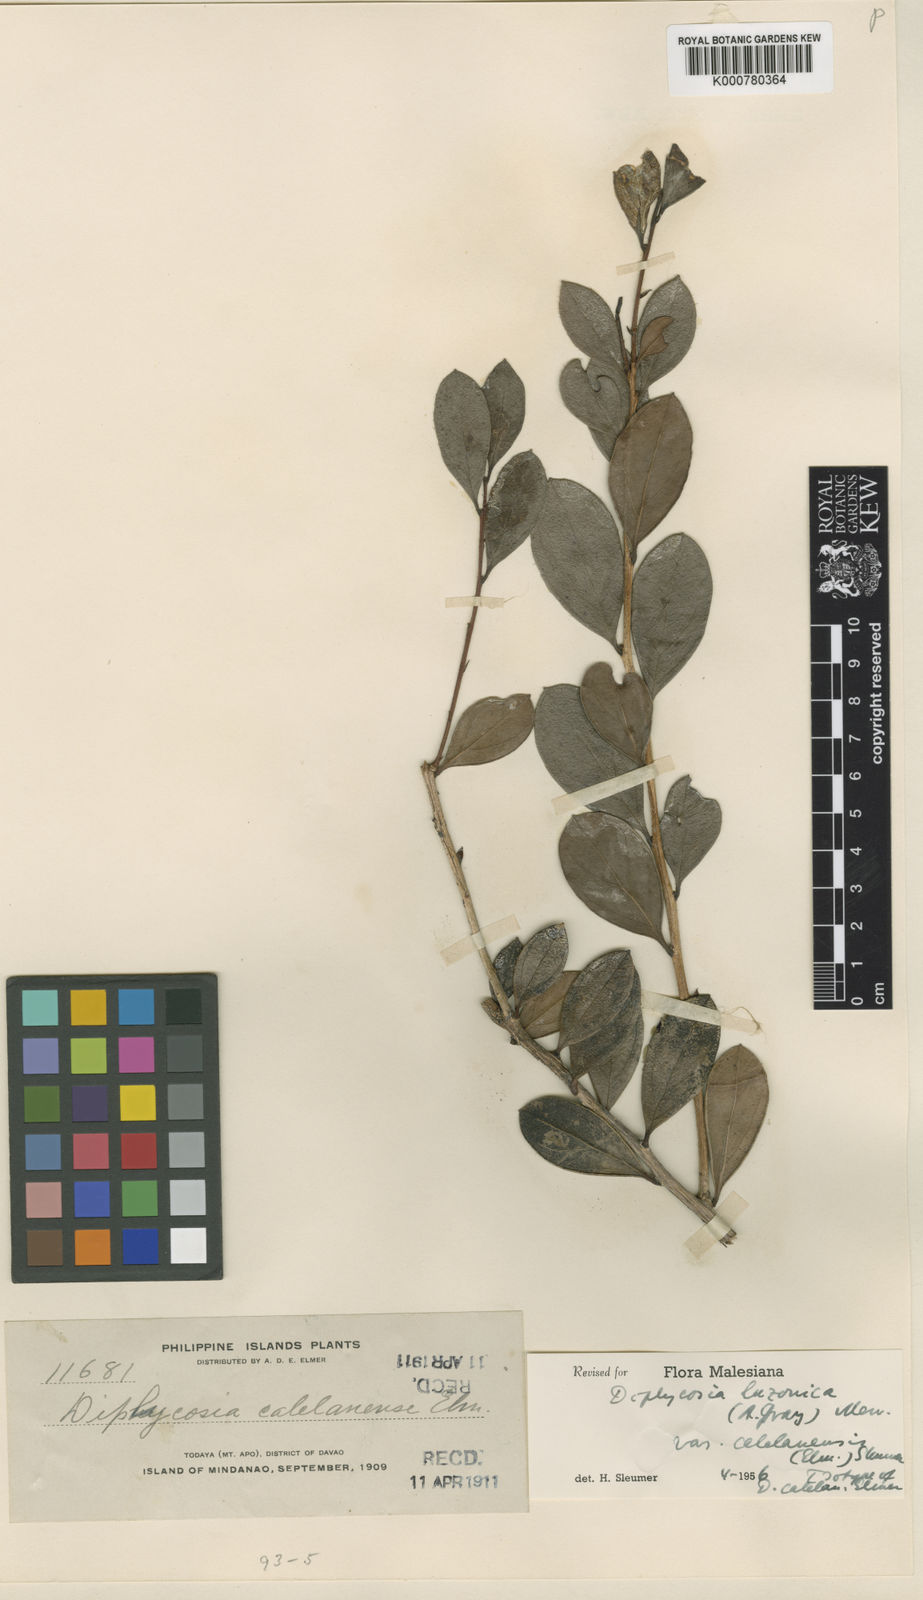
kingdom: Plantae
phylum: Tracheophyta
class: Magnoliopsida
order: Ericales
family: Ericaceae
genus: Gaultheria
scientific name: Gaultheria luzonica
